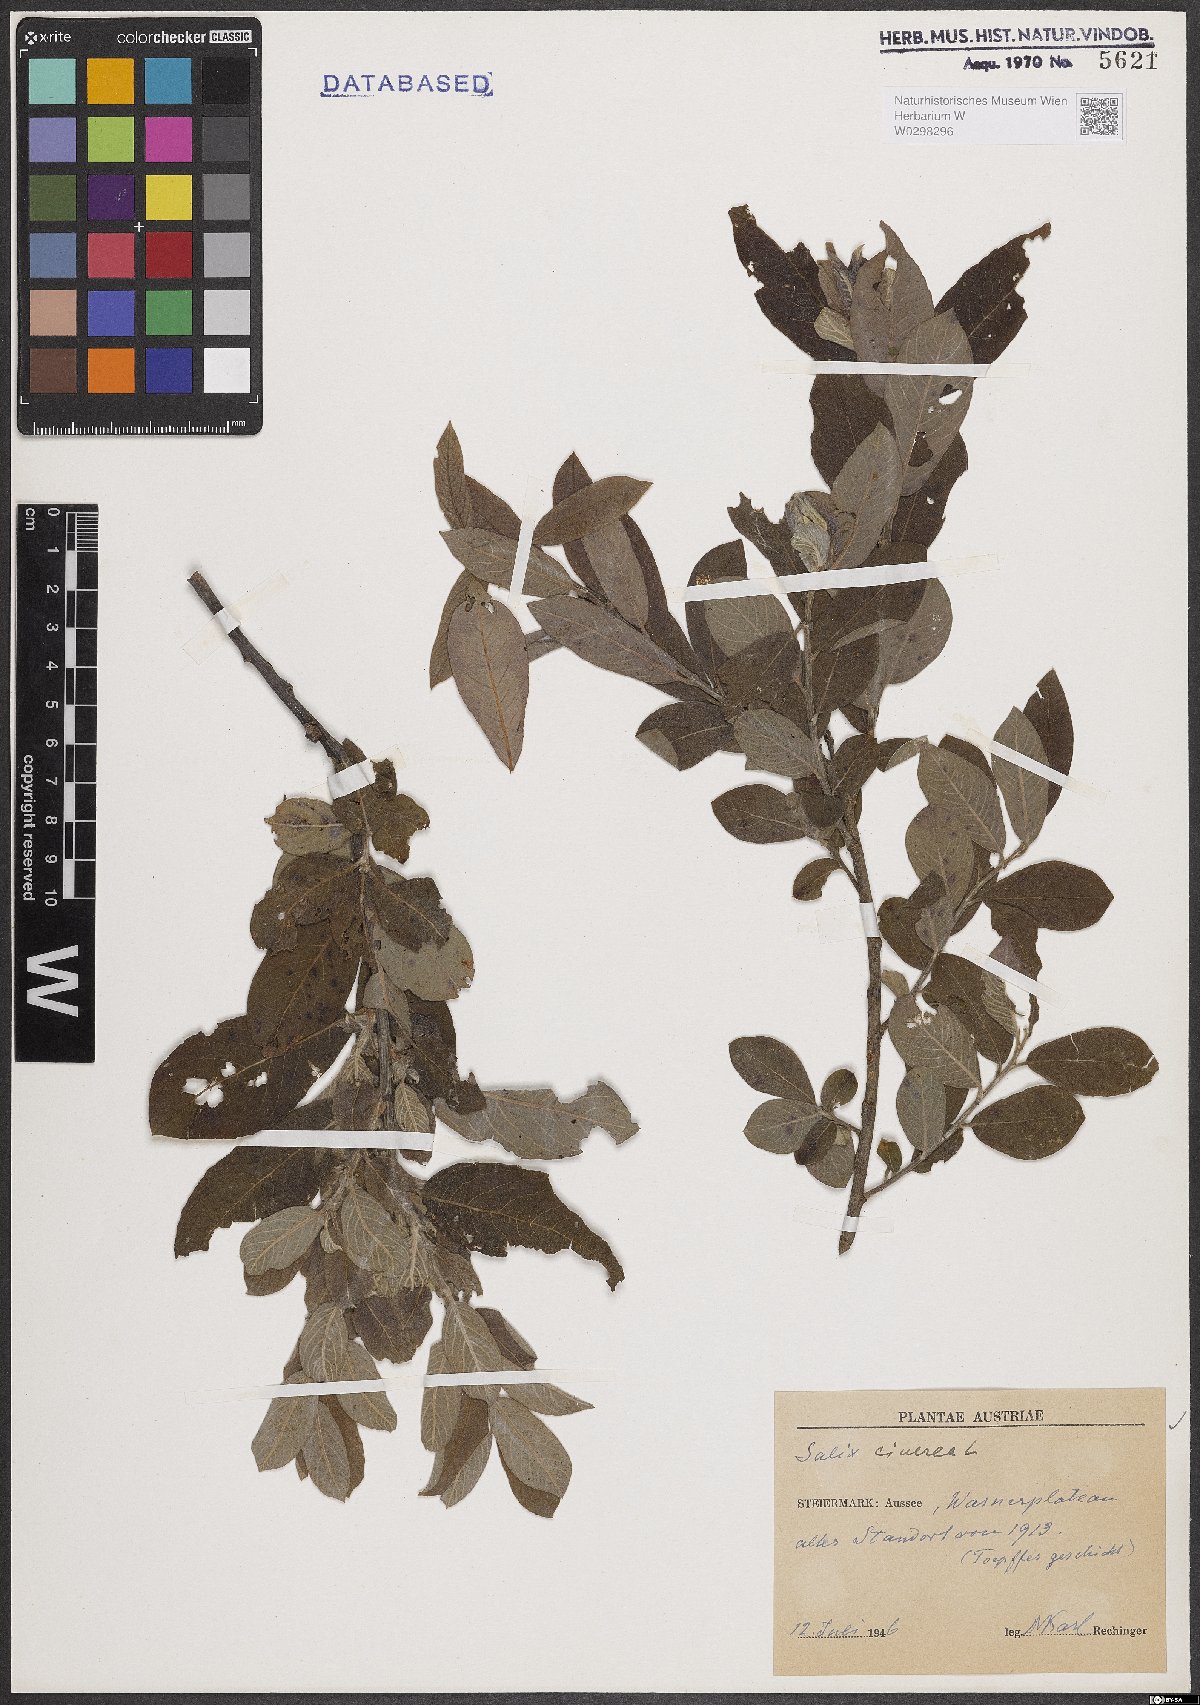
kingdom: Plantae
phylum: Tracheophyta
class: Magnoliopsida
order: Malpighiales
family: Salicaceae
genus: Salix
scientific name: Salix cinerea
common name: Common sallow
